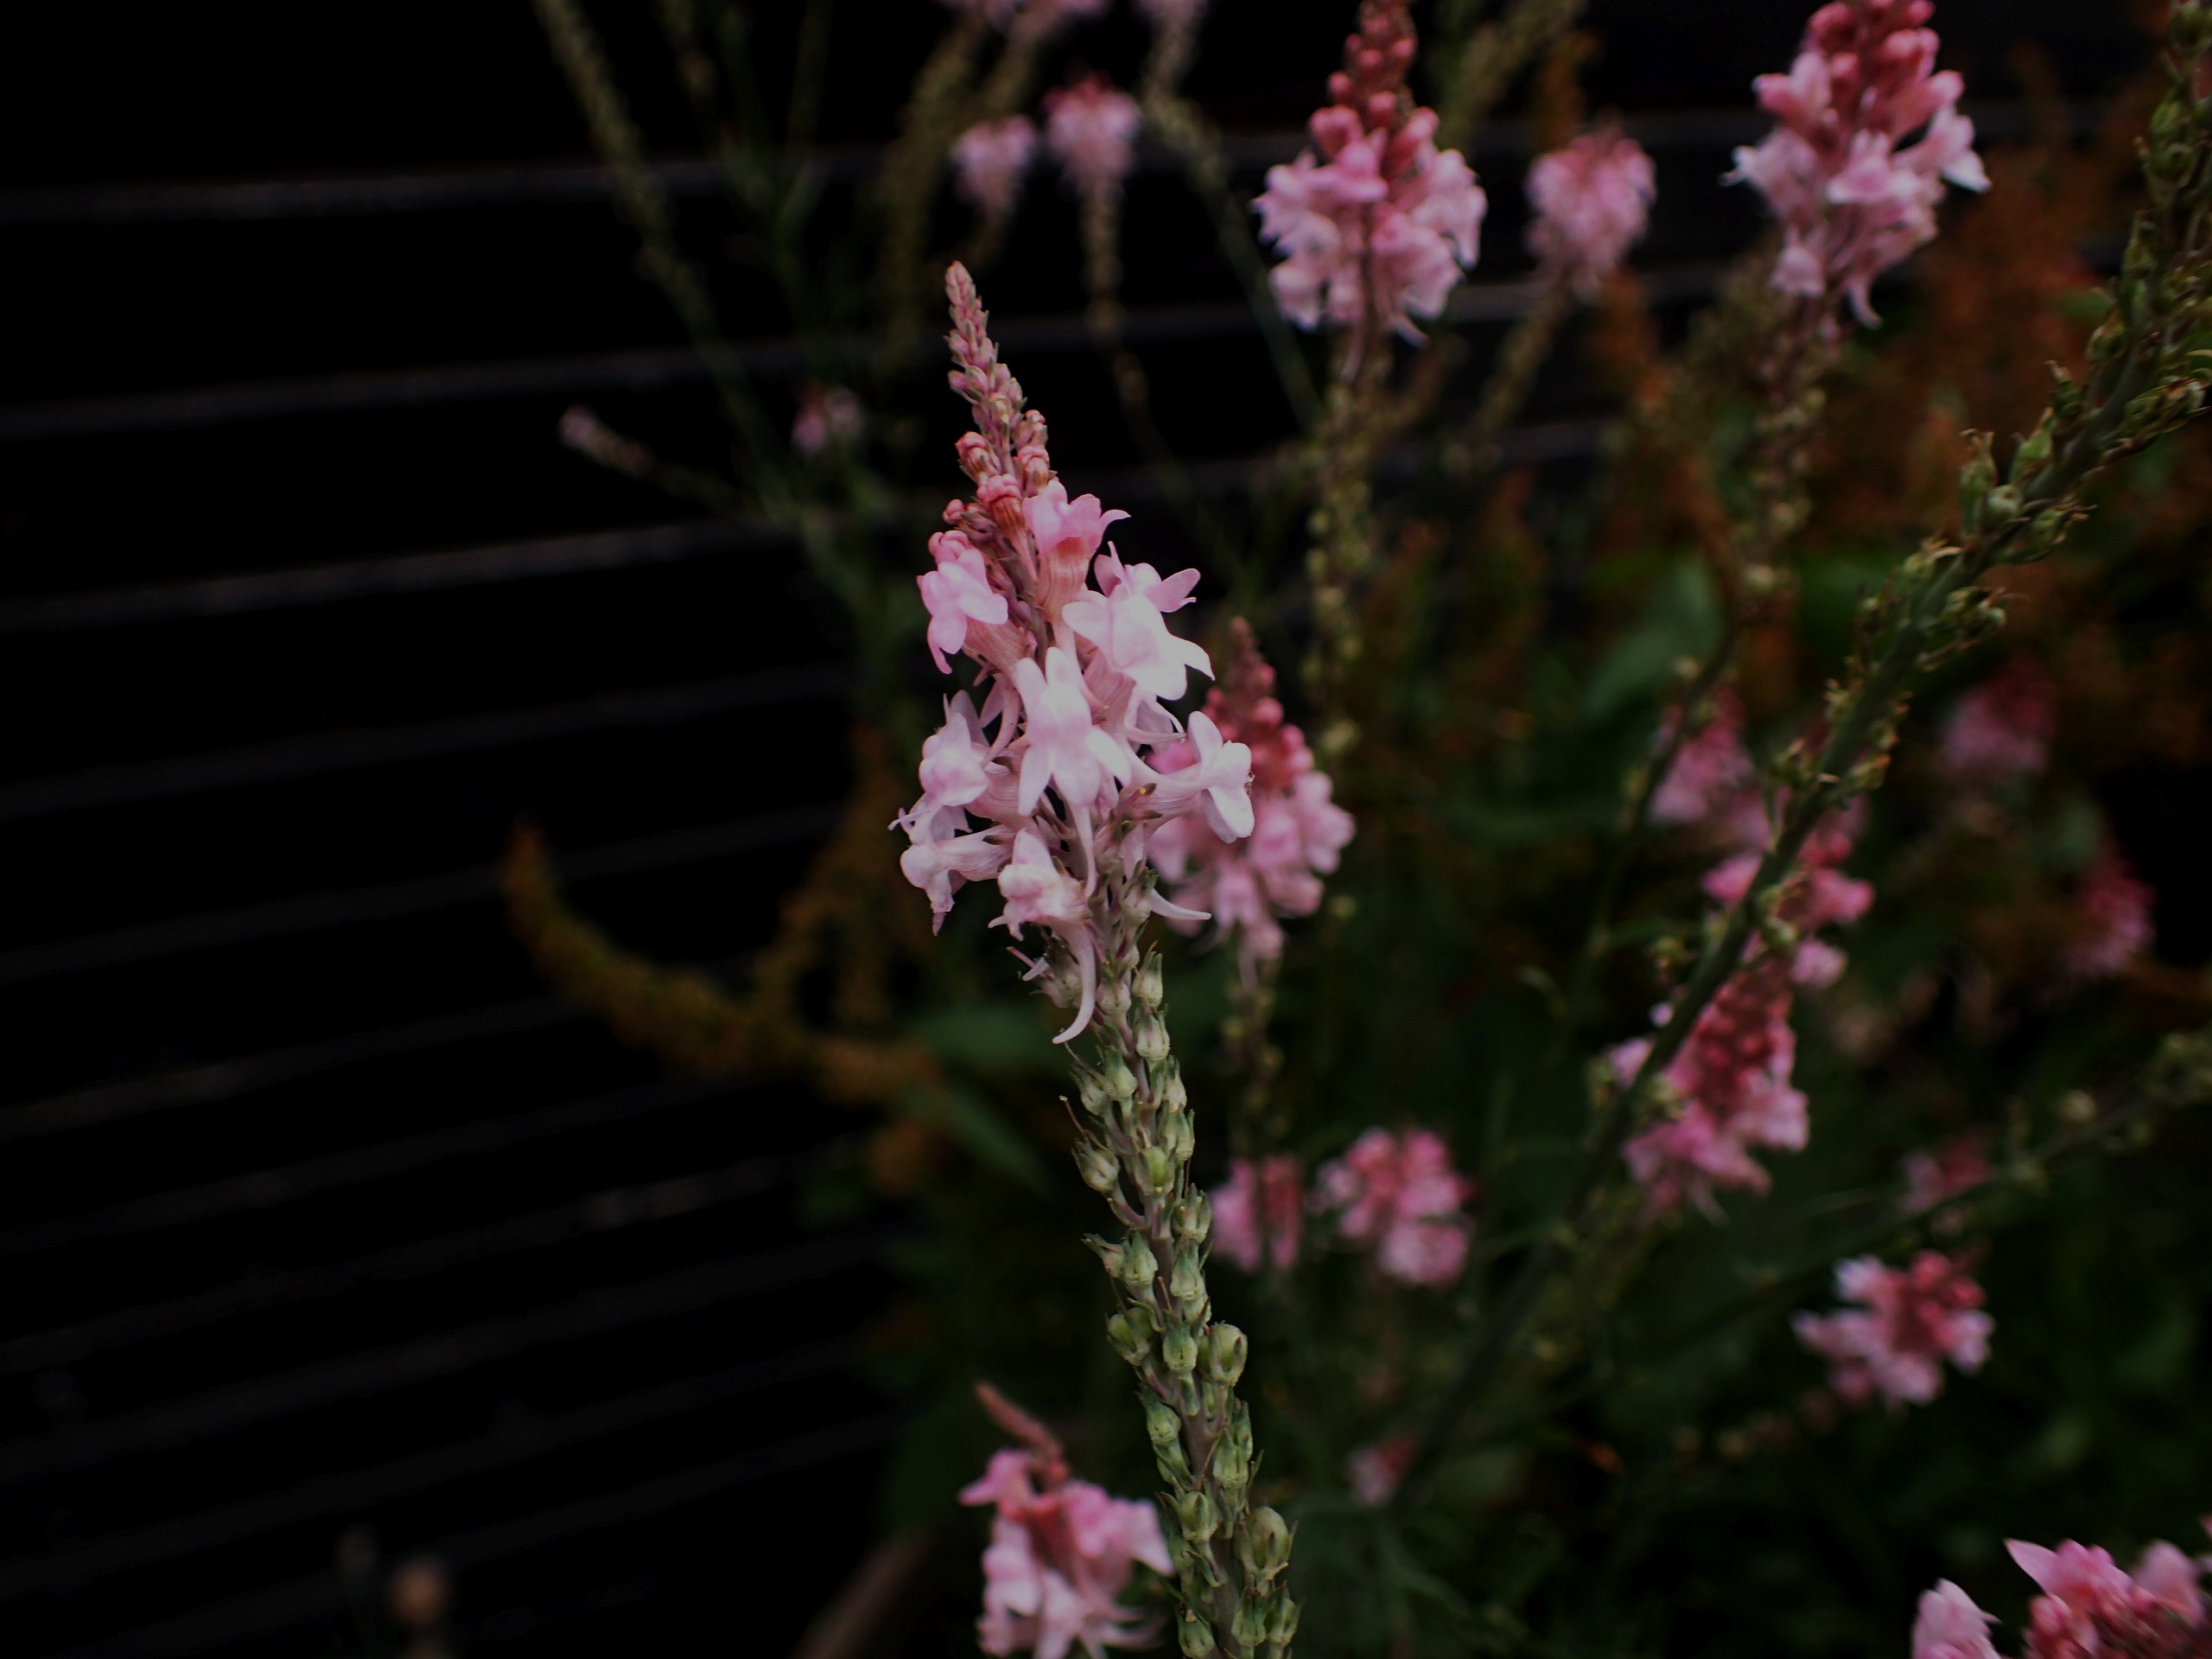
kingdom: Plantae
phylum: Tracheophyta
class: Magnoliopsida
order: Lamiales
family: Plantaginaceae
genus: Linaria
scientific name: Linaria purpurea
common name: Purpur-torskemund
